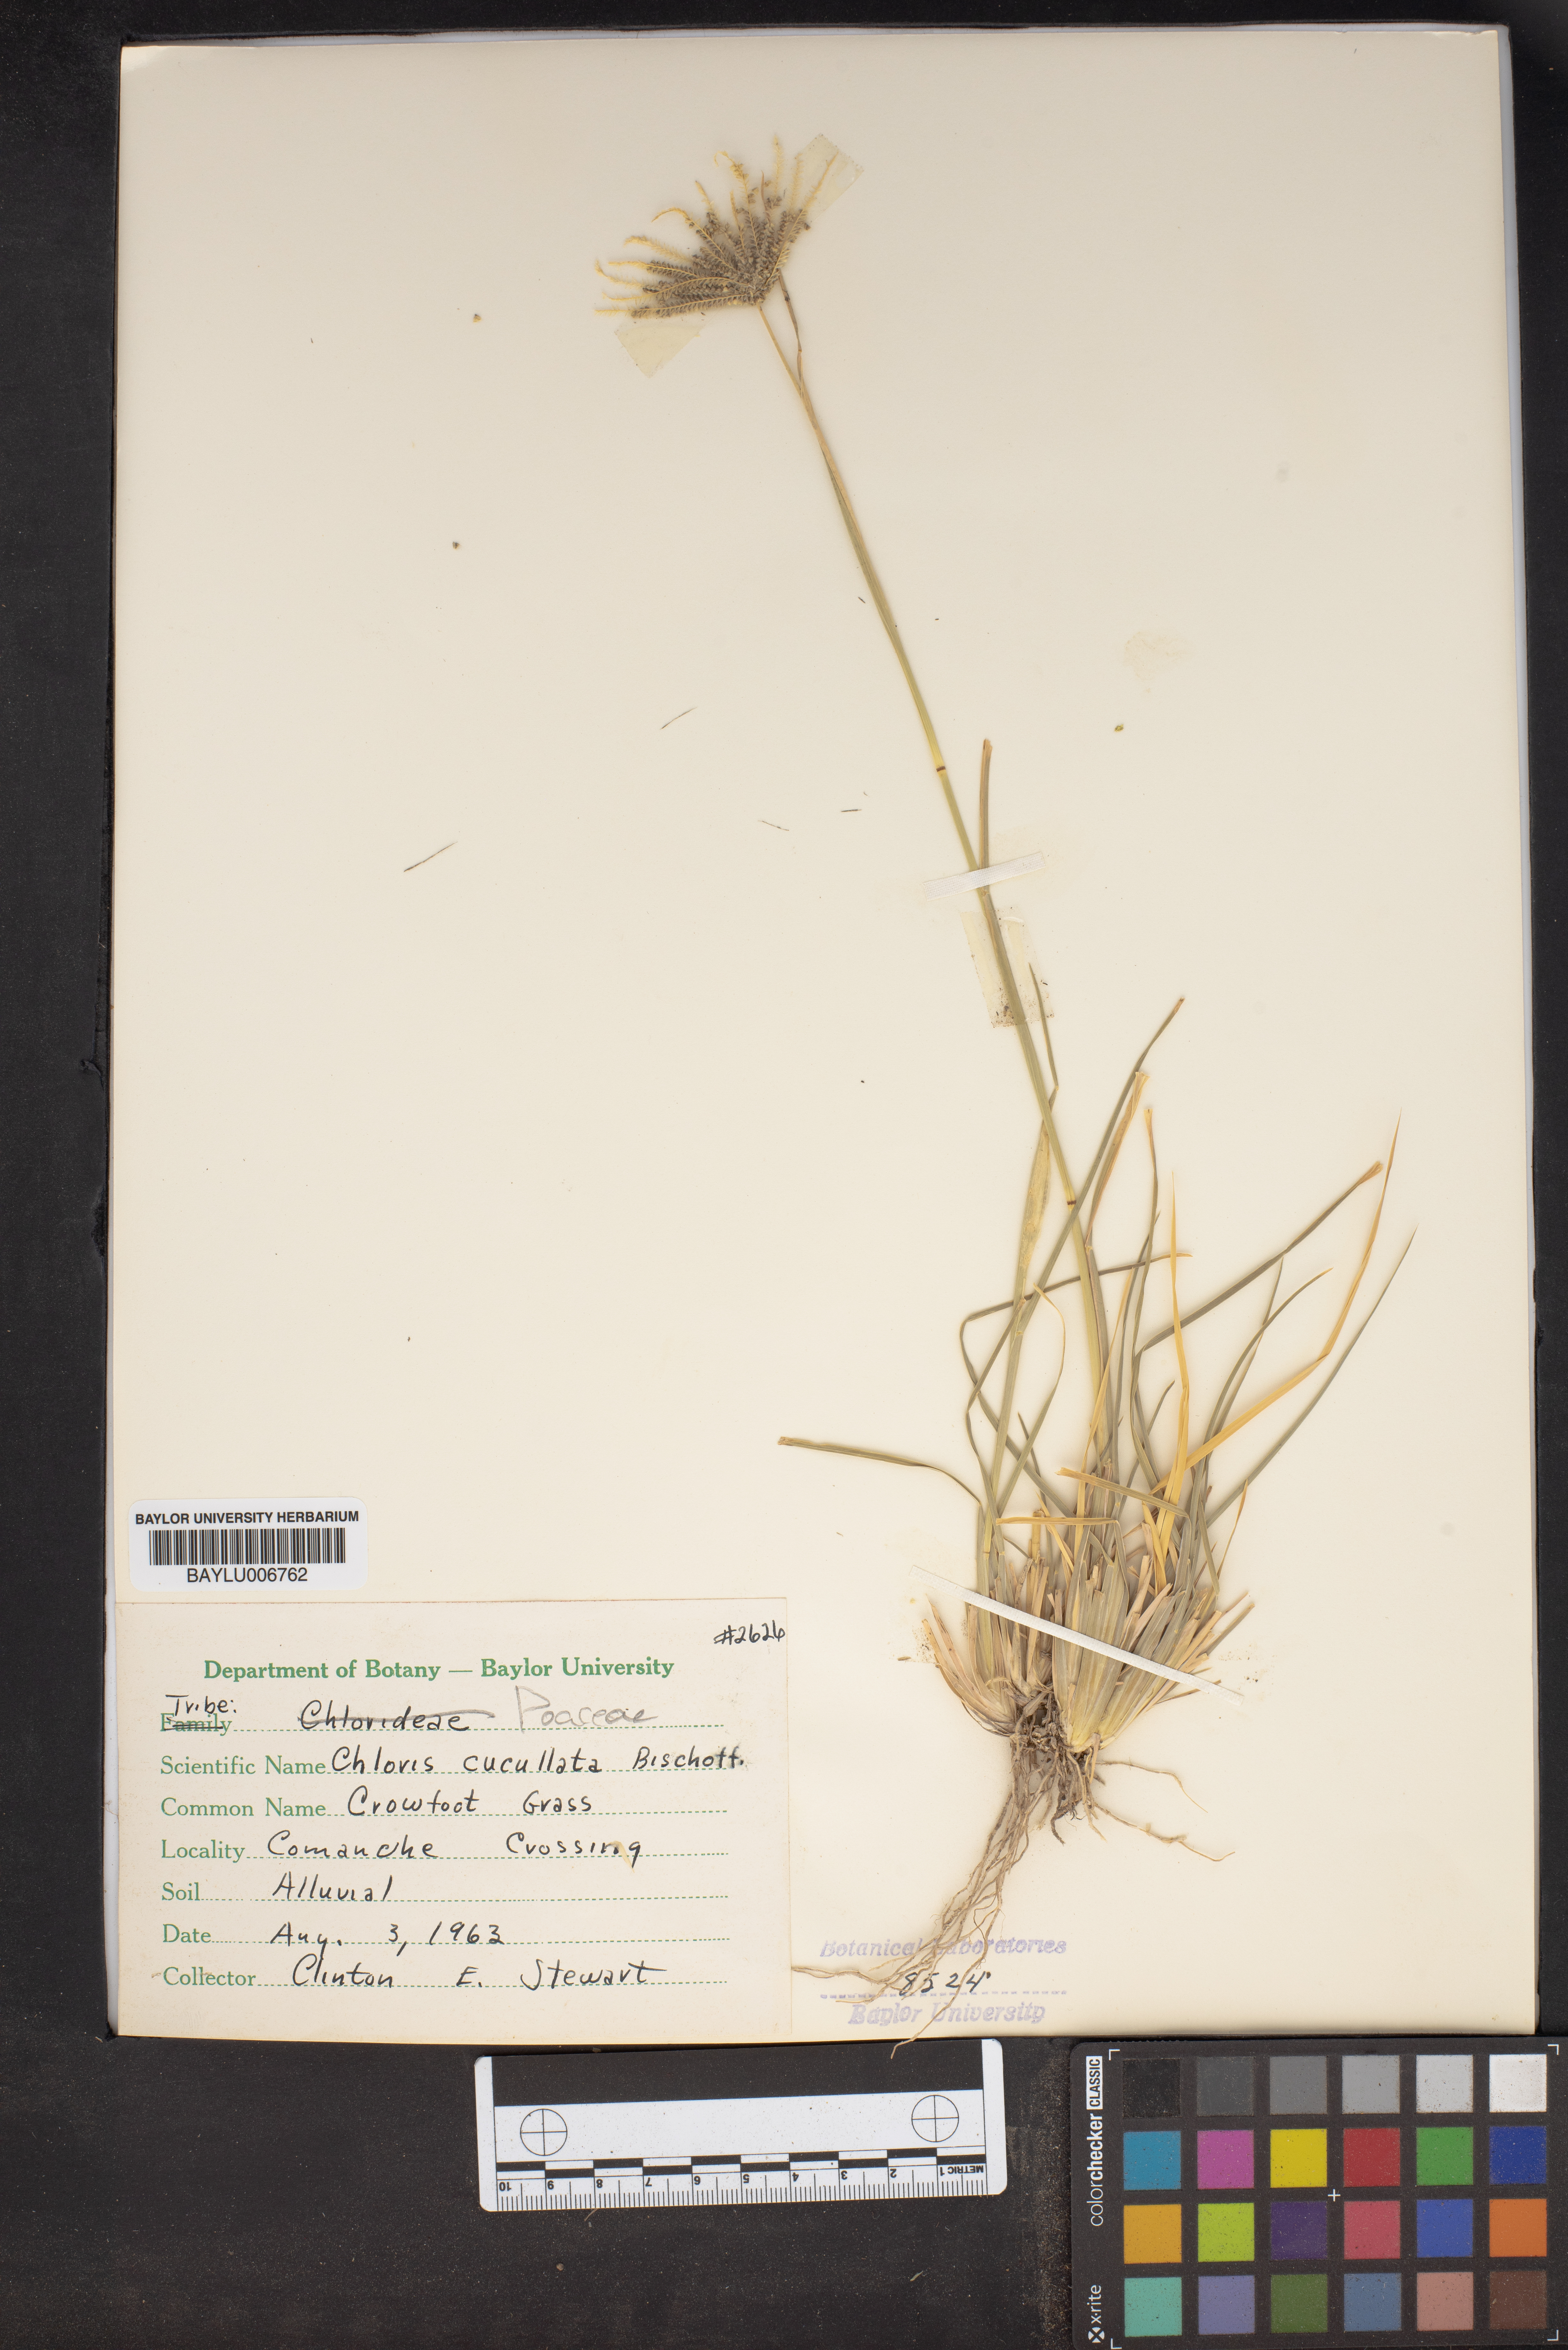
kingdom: Plantae
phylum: Tracheophyta
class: Liliopsida
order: Poales
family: Poaceae
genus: Chloris
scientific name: Chloris cucullata
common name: Hooded windmill grass
